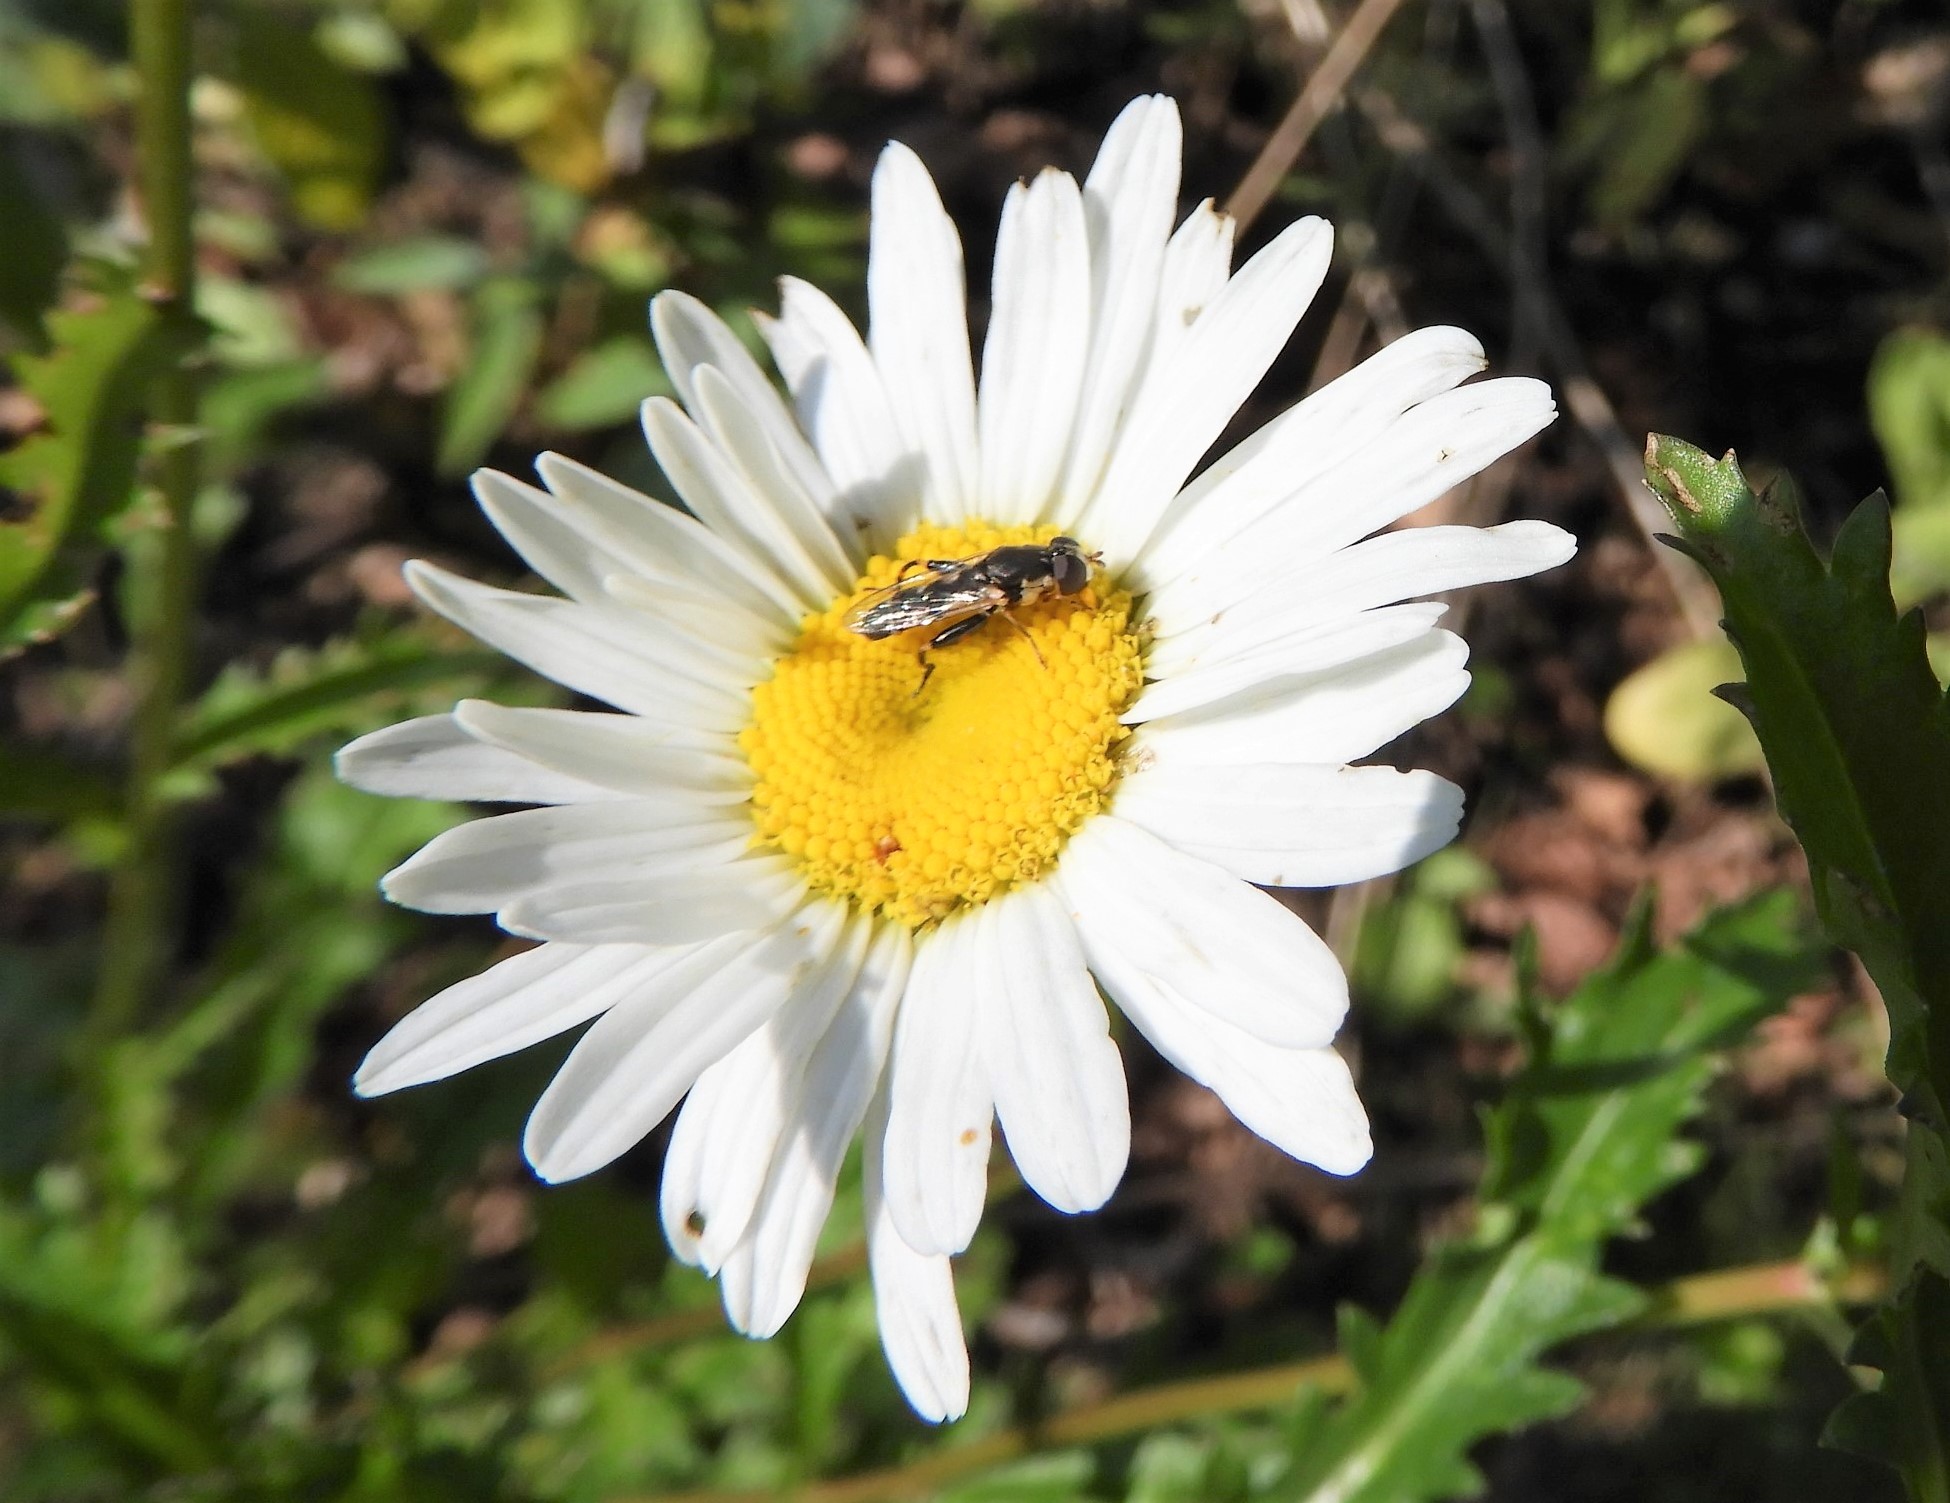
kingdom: Animalia
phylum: Arthropoda
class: Insecta
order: Diptera
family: Syrphidae
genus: Syritta
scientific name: Syritta pipiens
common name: Kompost-svirreflue
